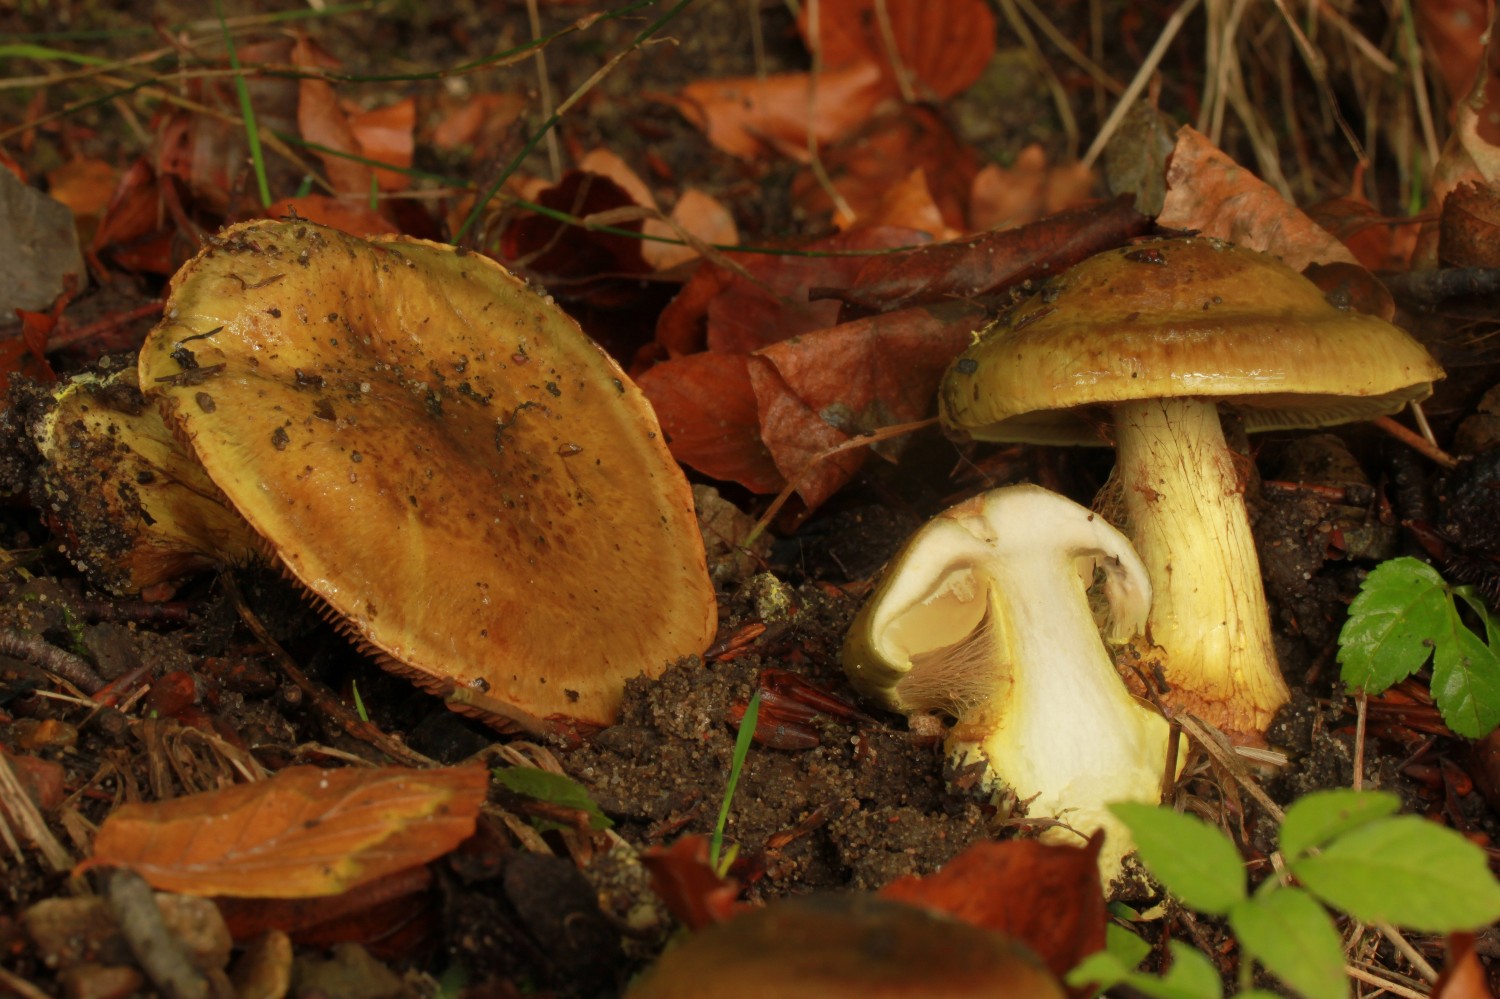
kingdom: Fungi
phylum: Basidiomycota
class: Agaricomycetes
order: Agaricales
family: Cortinariaceae
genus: Calonarius
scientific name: Calonarius odoratus
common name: krydret slørhat
